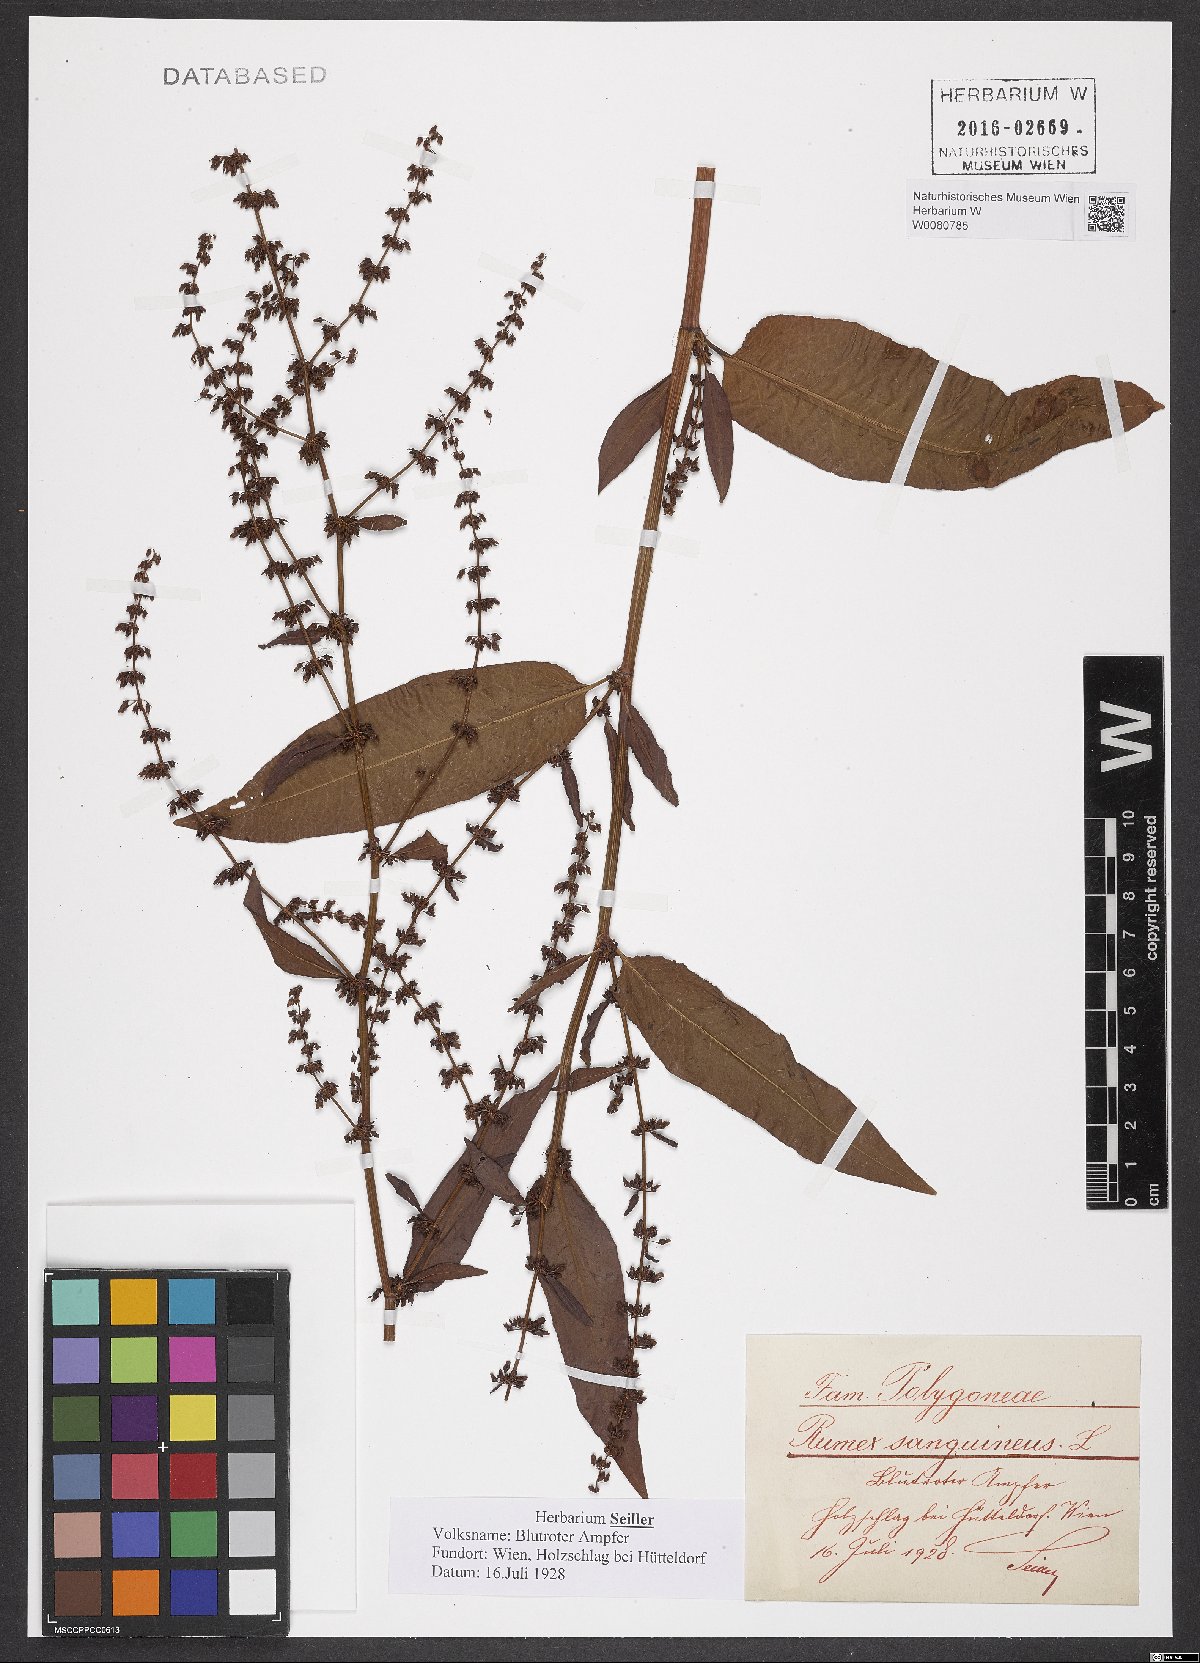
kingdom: Plantae
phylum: Tracheophyta
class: Magnoliopsida
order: Caryophyllales
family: Polygonaceae
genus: Rumex
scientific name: Rumex sanguineus
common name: Wood dock
